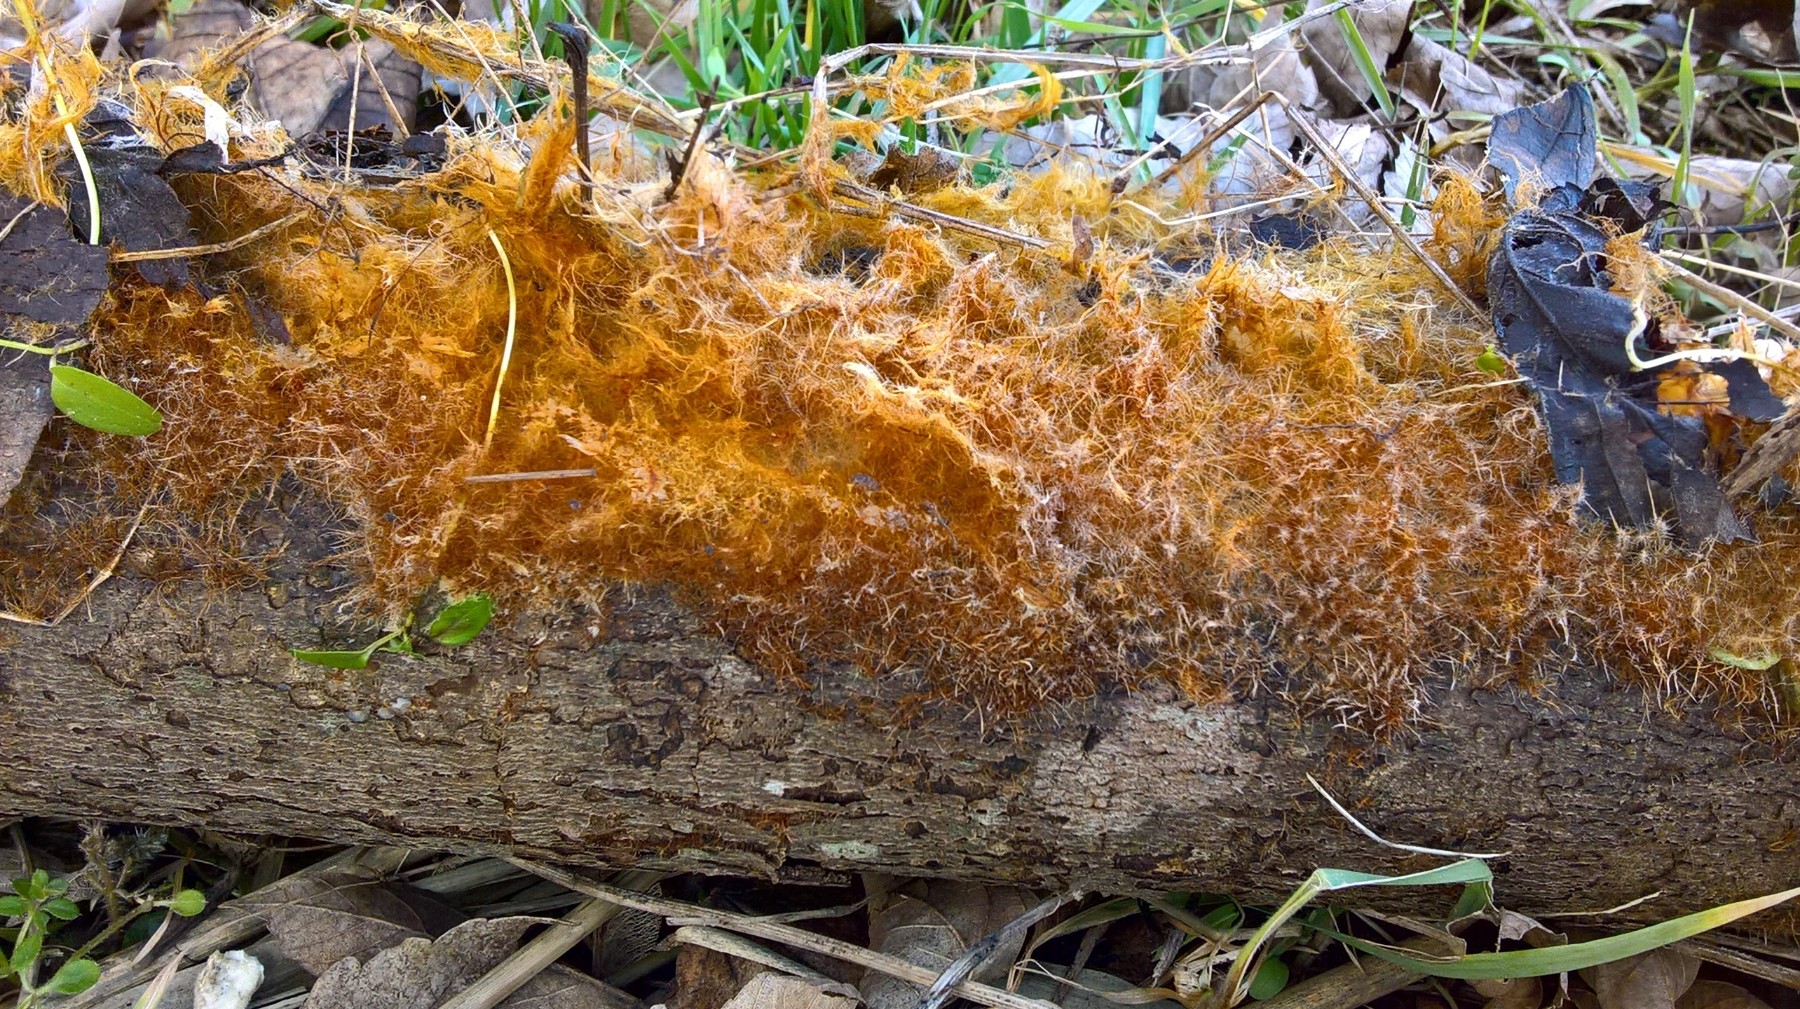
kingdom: Fungi
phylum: Basidiomycota
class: Agaricomycetes
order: Agaricales
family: Psathyrellaceae
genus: Ozonium
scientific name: Ozonium
